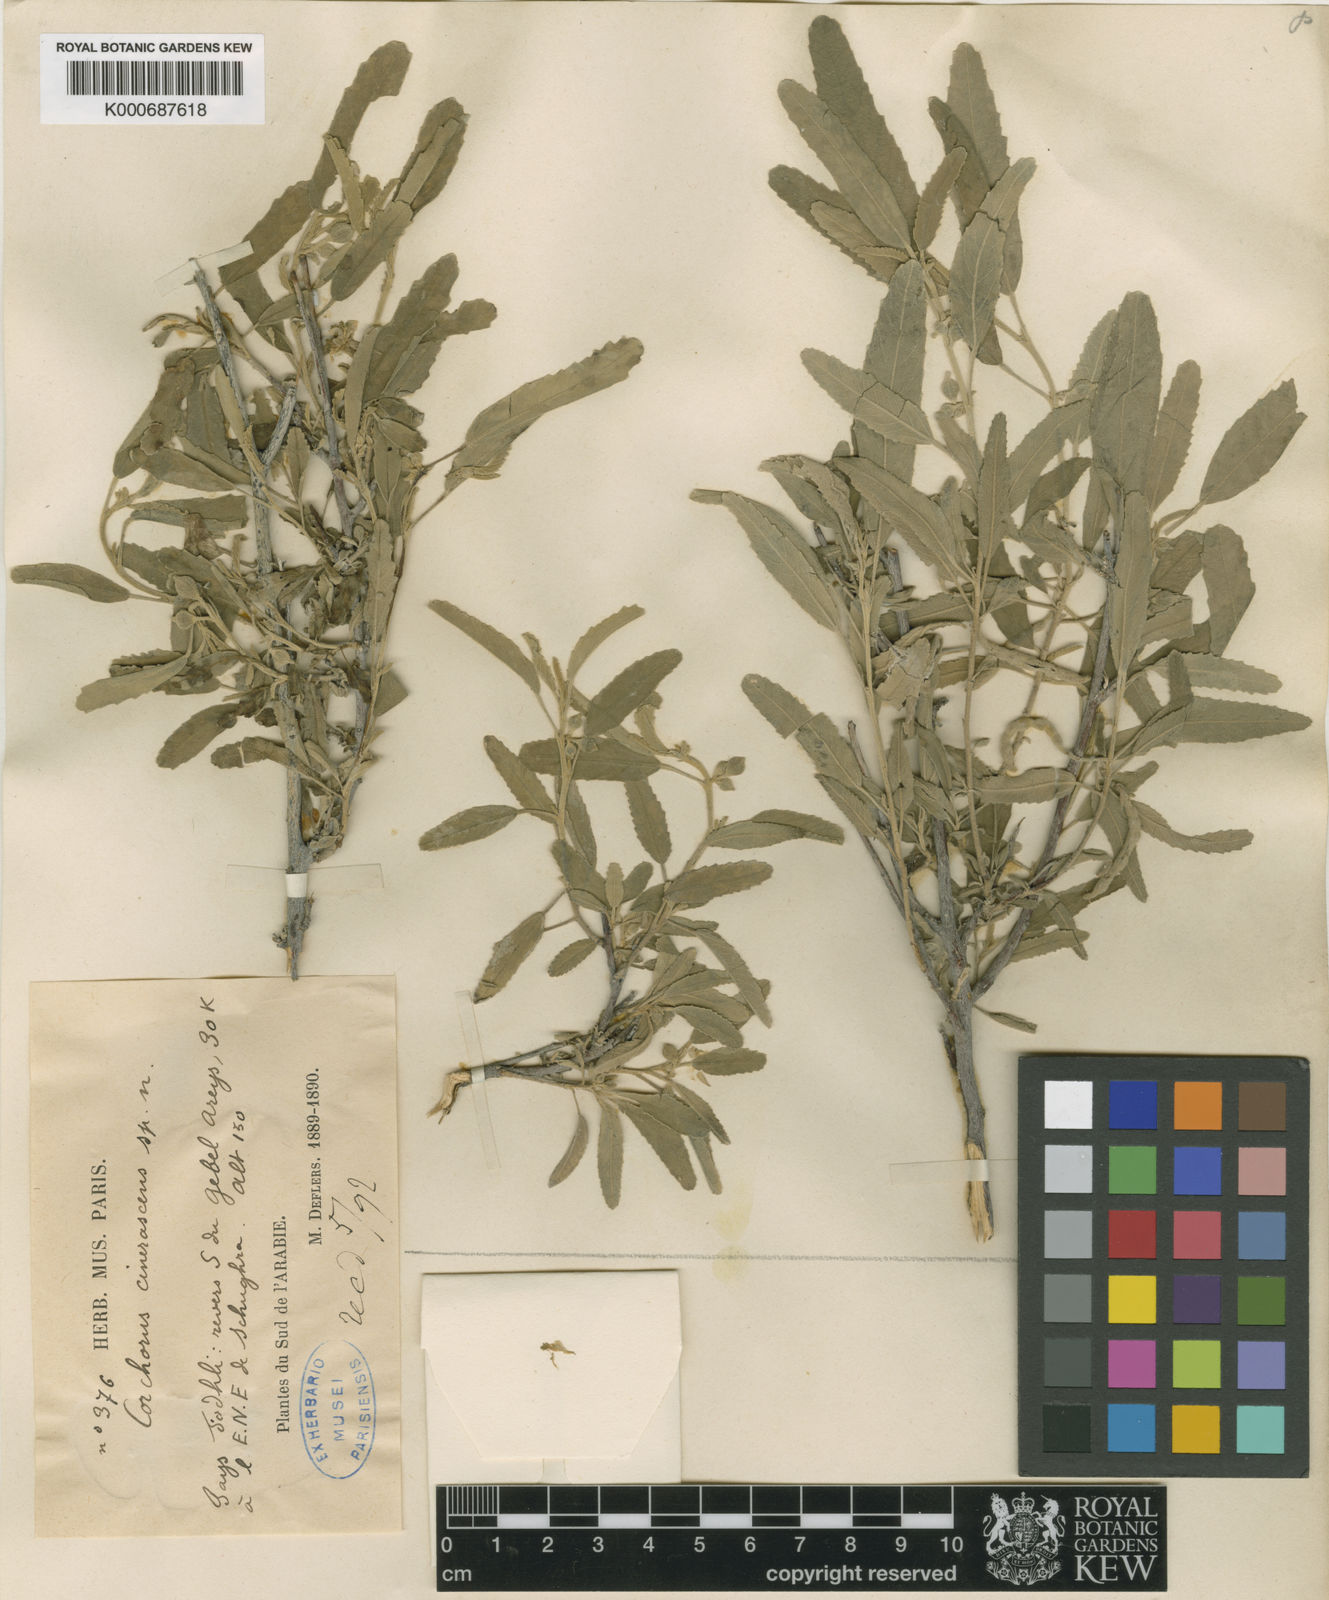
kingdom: Plantae
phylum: Tracheophyta
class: Magnoliopsida
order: Malvales
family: Malvaceae
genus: Corchorus
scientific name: Corchorus cinerascens
